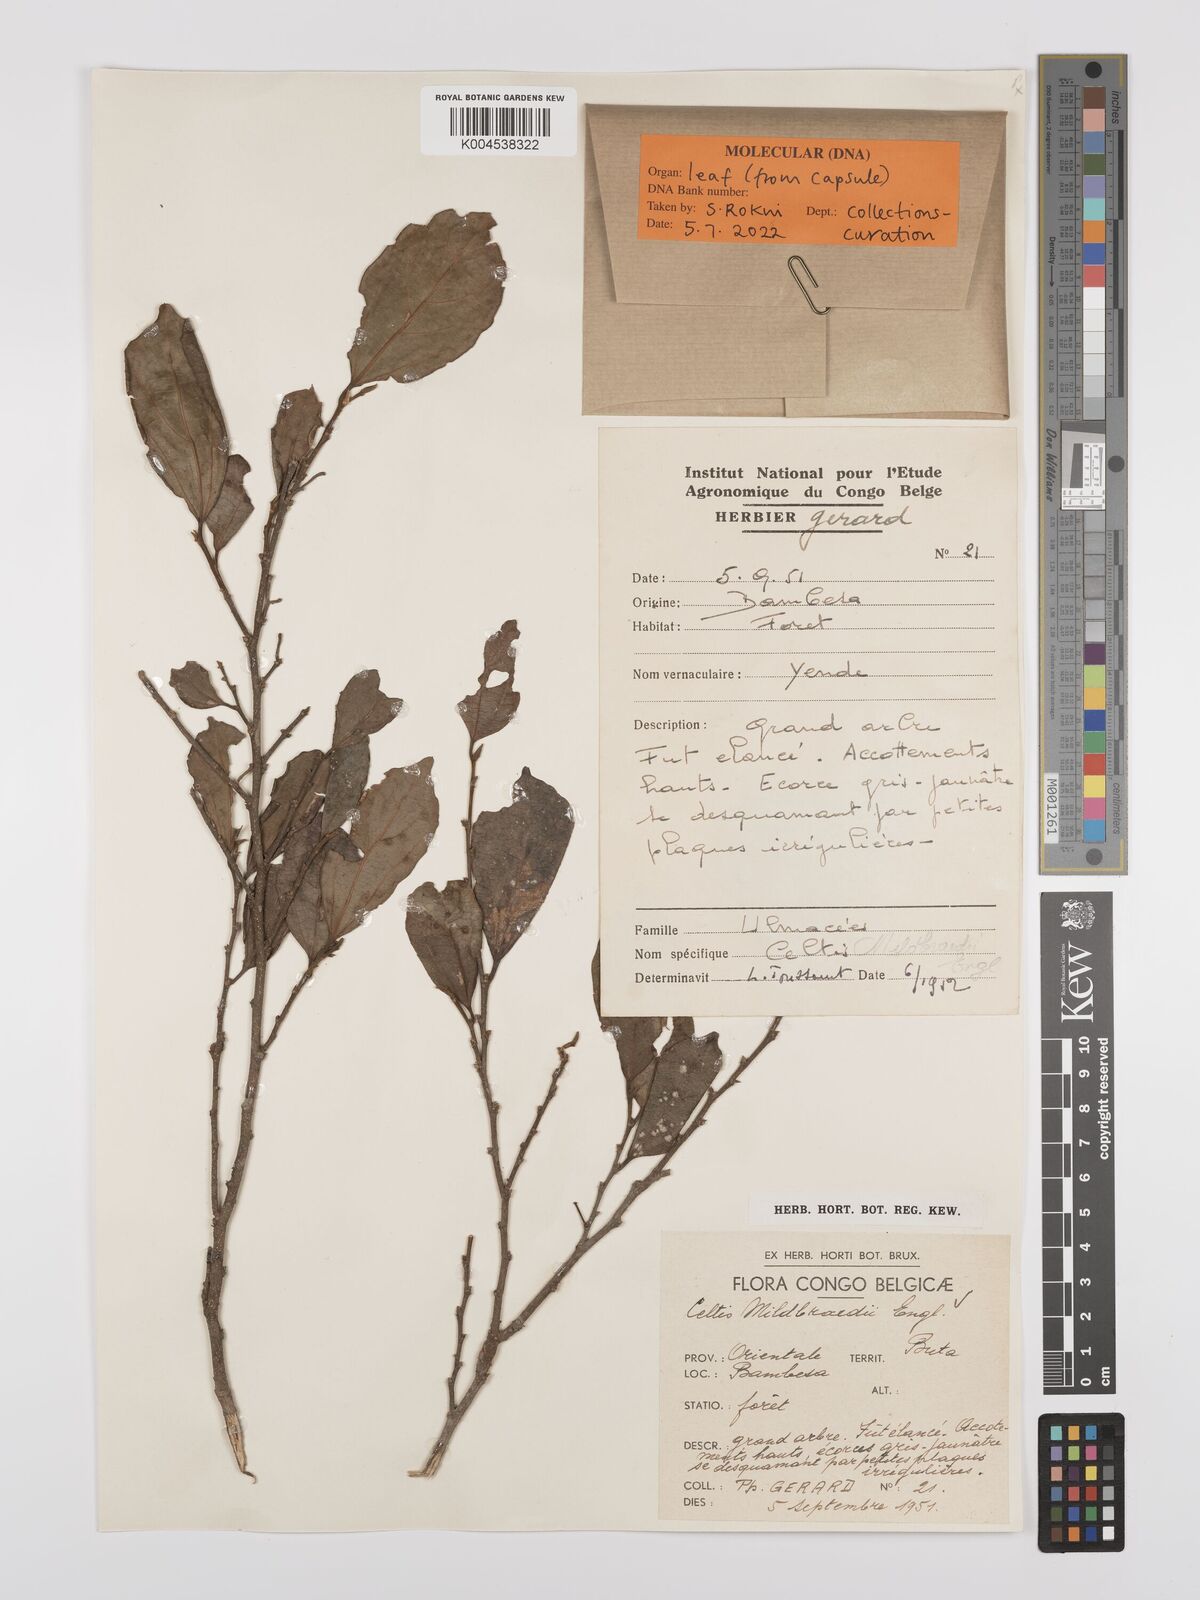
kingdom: Plantae
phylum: Tracheophyta
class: Magnoliopsida
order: Rosales
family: Cannabaceae
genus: Celtis
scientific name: Celtis mildbraedii
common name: Red-fruited stinkwood
